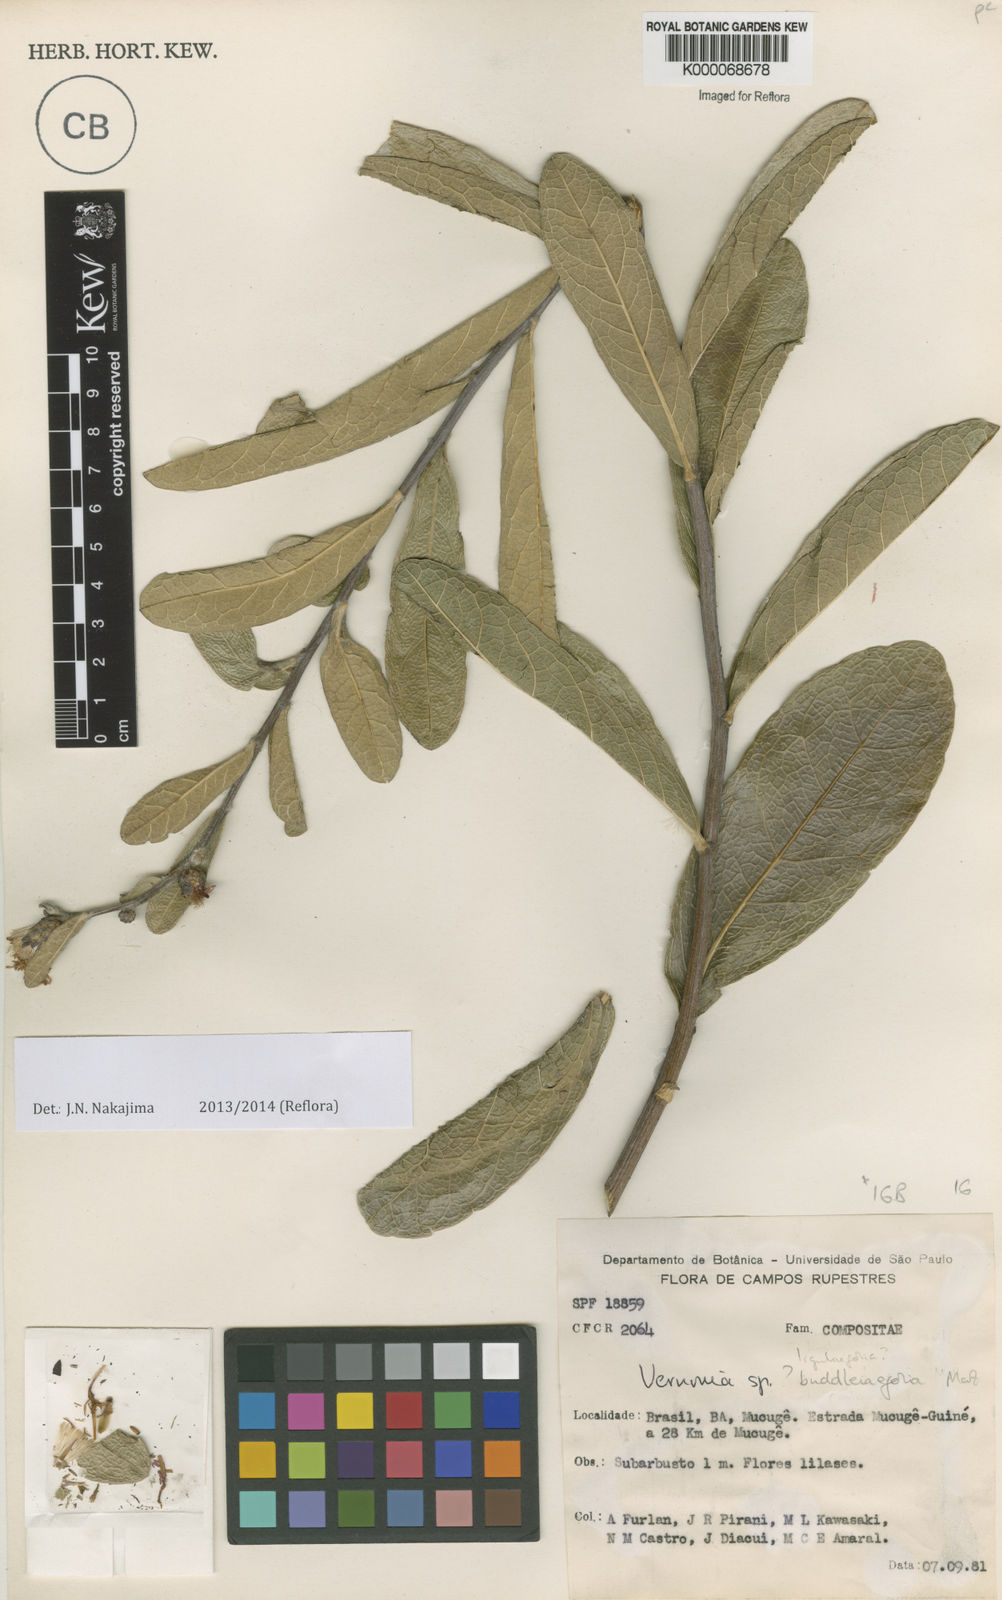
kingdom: Plantae
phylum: Tracheophyta
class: Magnoliopsida
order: Asterales
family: Asteraceae
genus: Lessingianthus
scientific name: Lessingianthus farinosus
